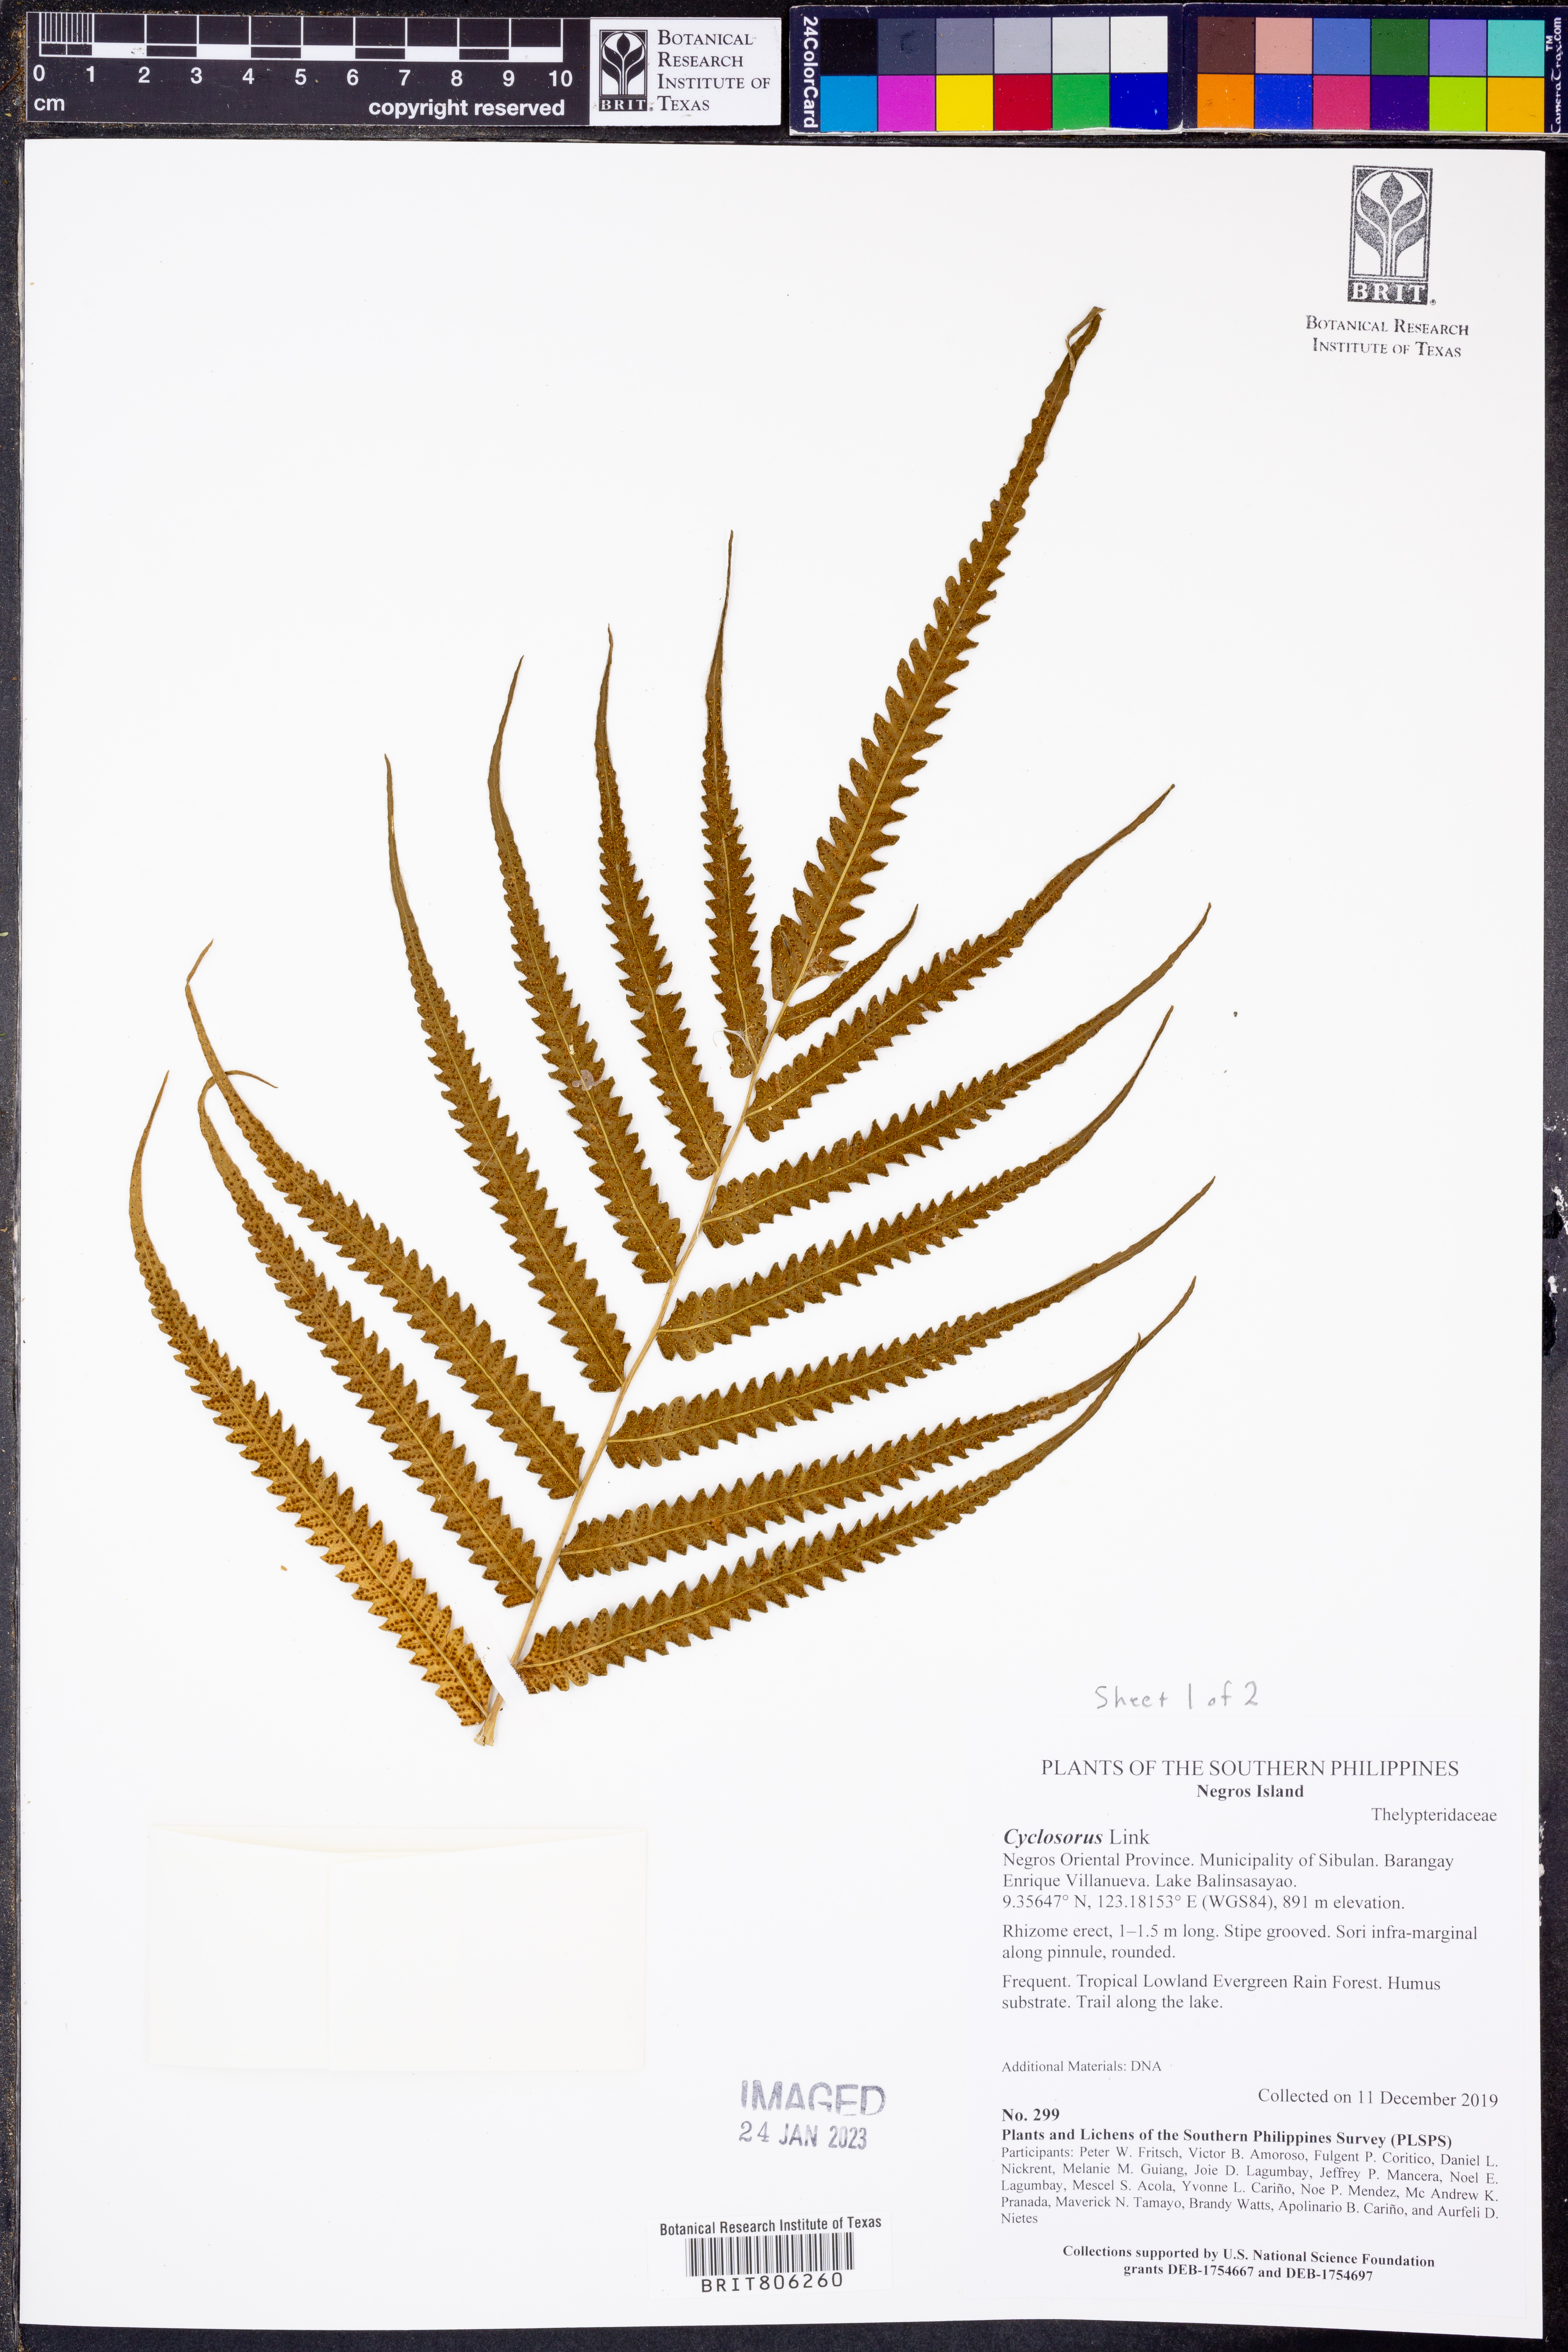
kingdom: Plantae
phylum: Tracheophyta
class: Polypodiopsida
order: Polypodiales
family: Thelypteridaceae
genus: Cyclosorus
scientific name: Cyclosorus
